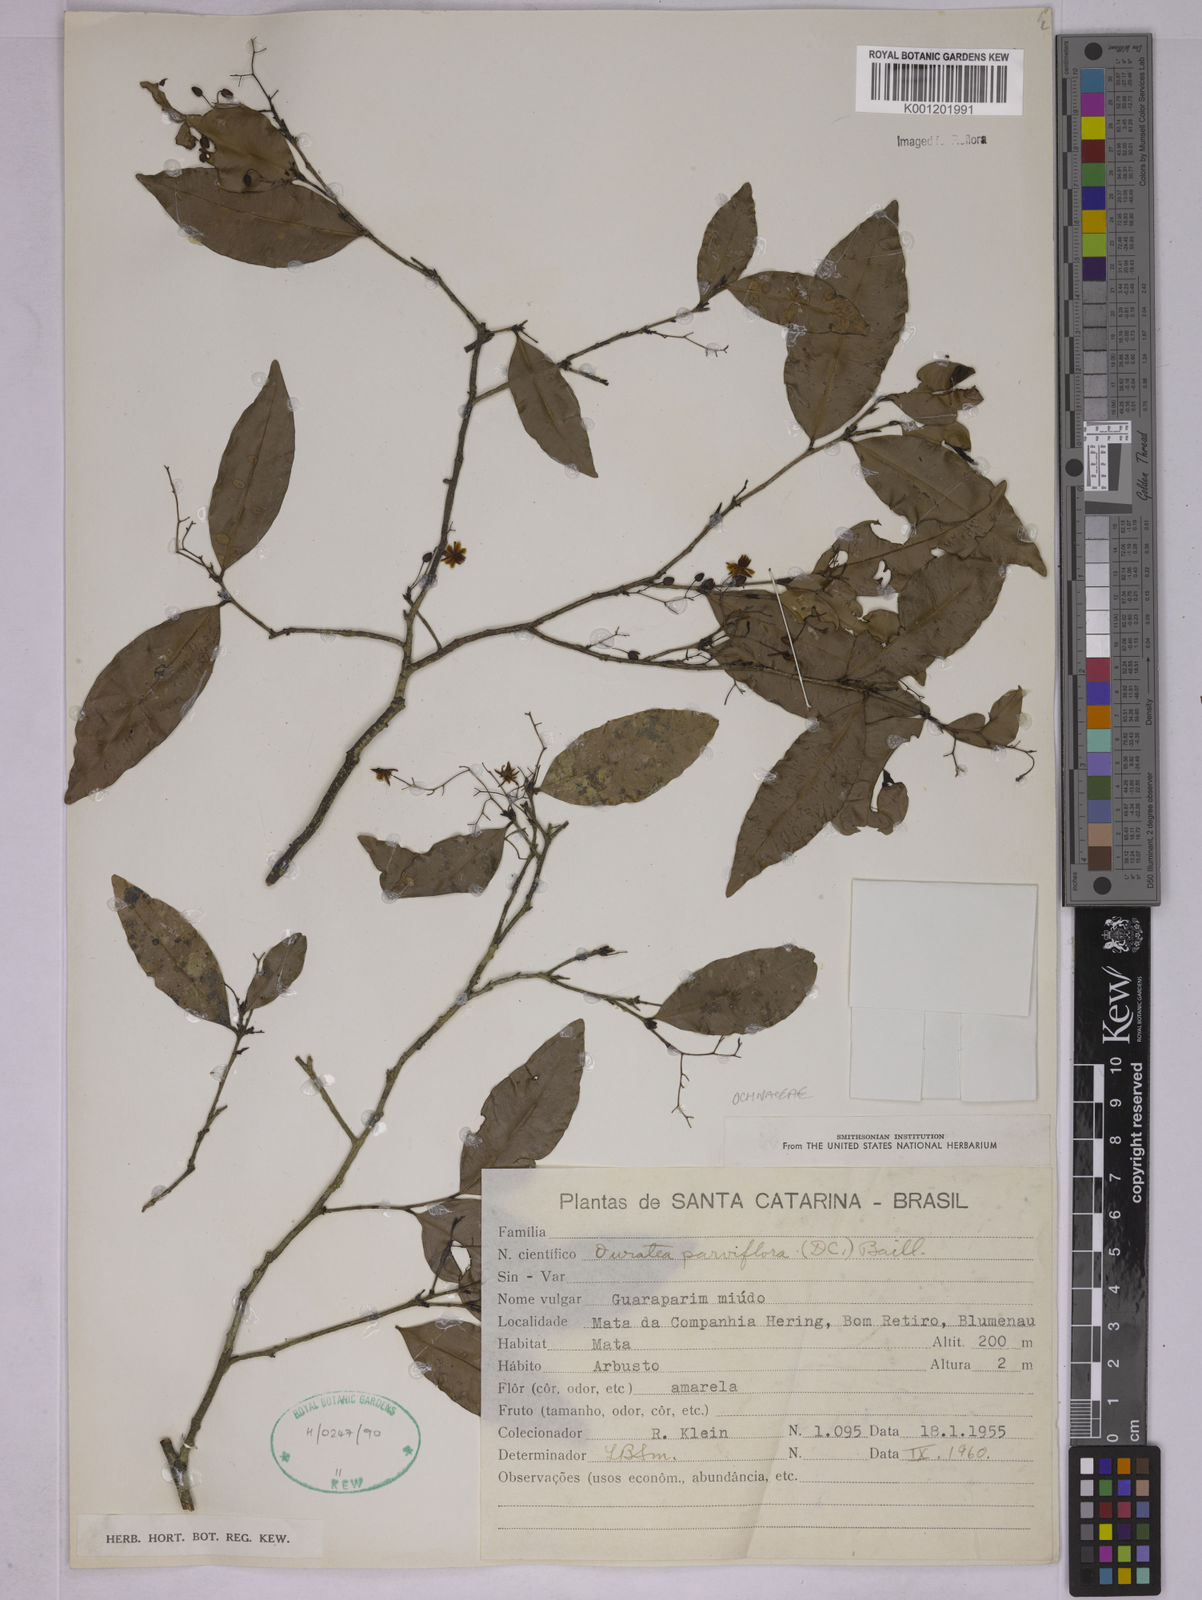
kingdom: Plantae
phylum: Tracheophyta
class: Magnoliopsida
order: Malpighiales
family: Ochnaceae
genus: Ouratea
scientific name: Ouratea parviflora
